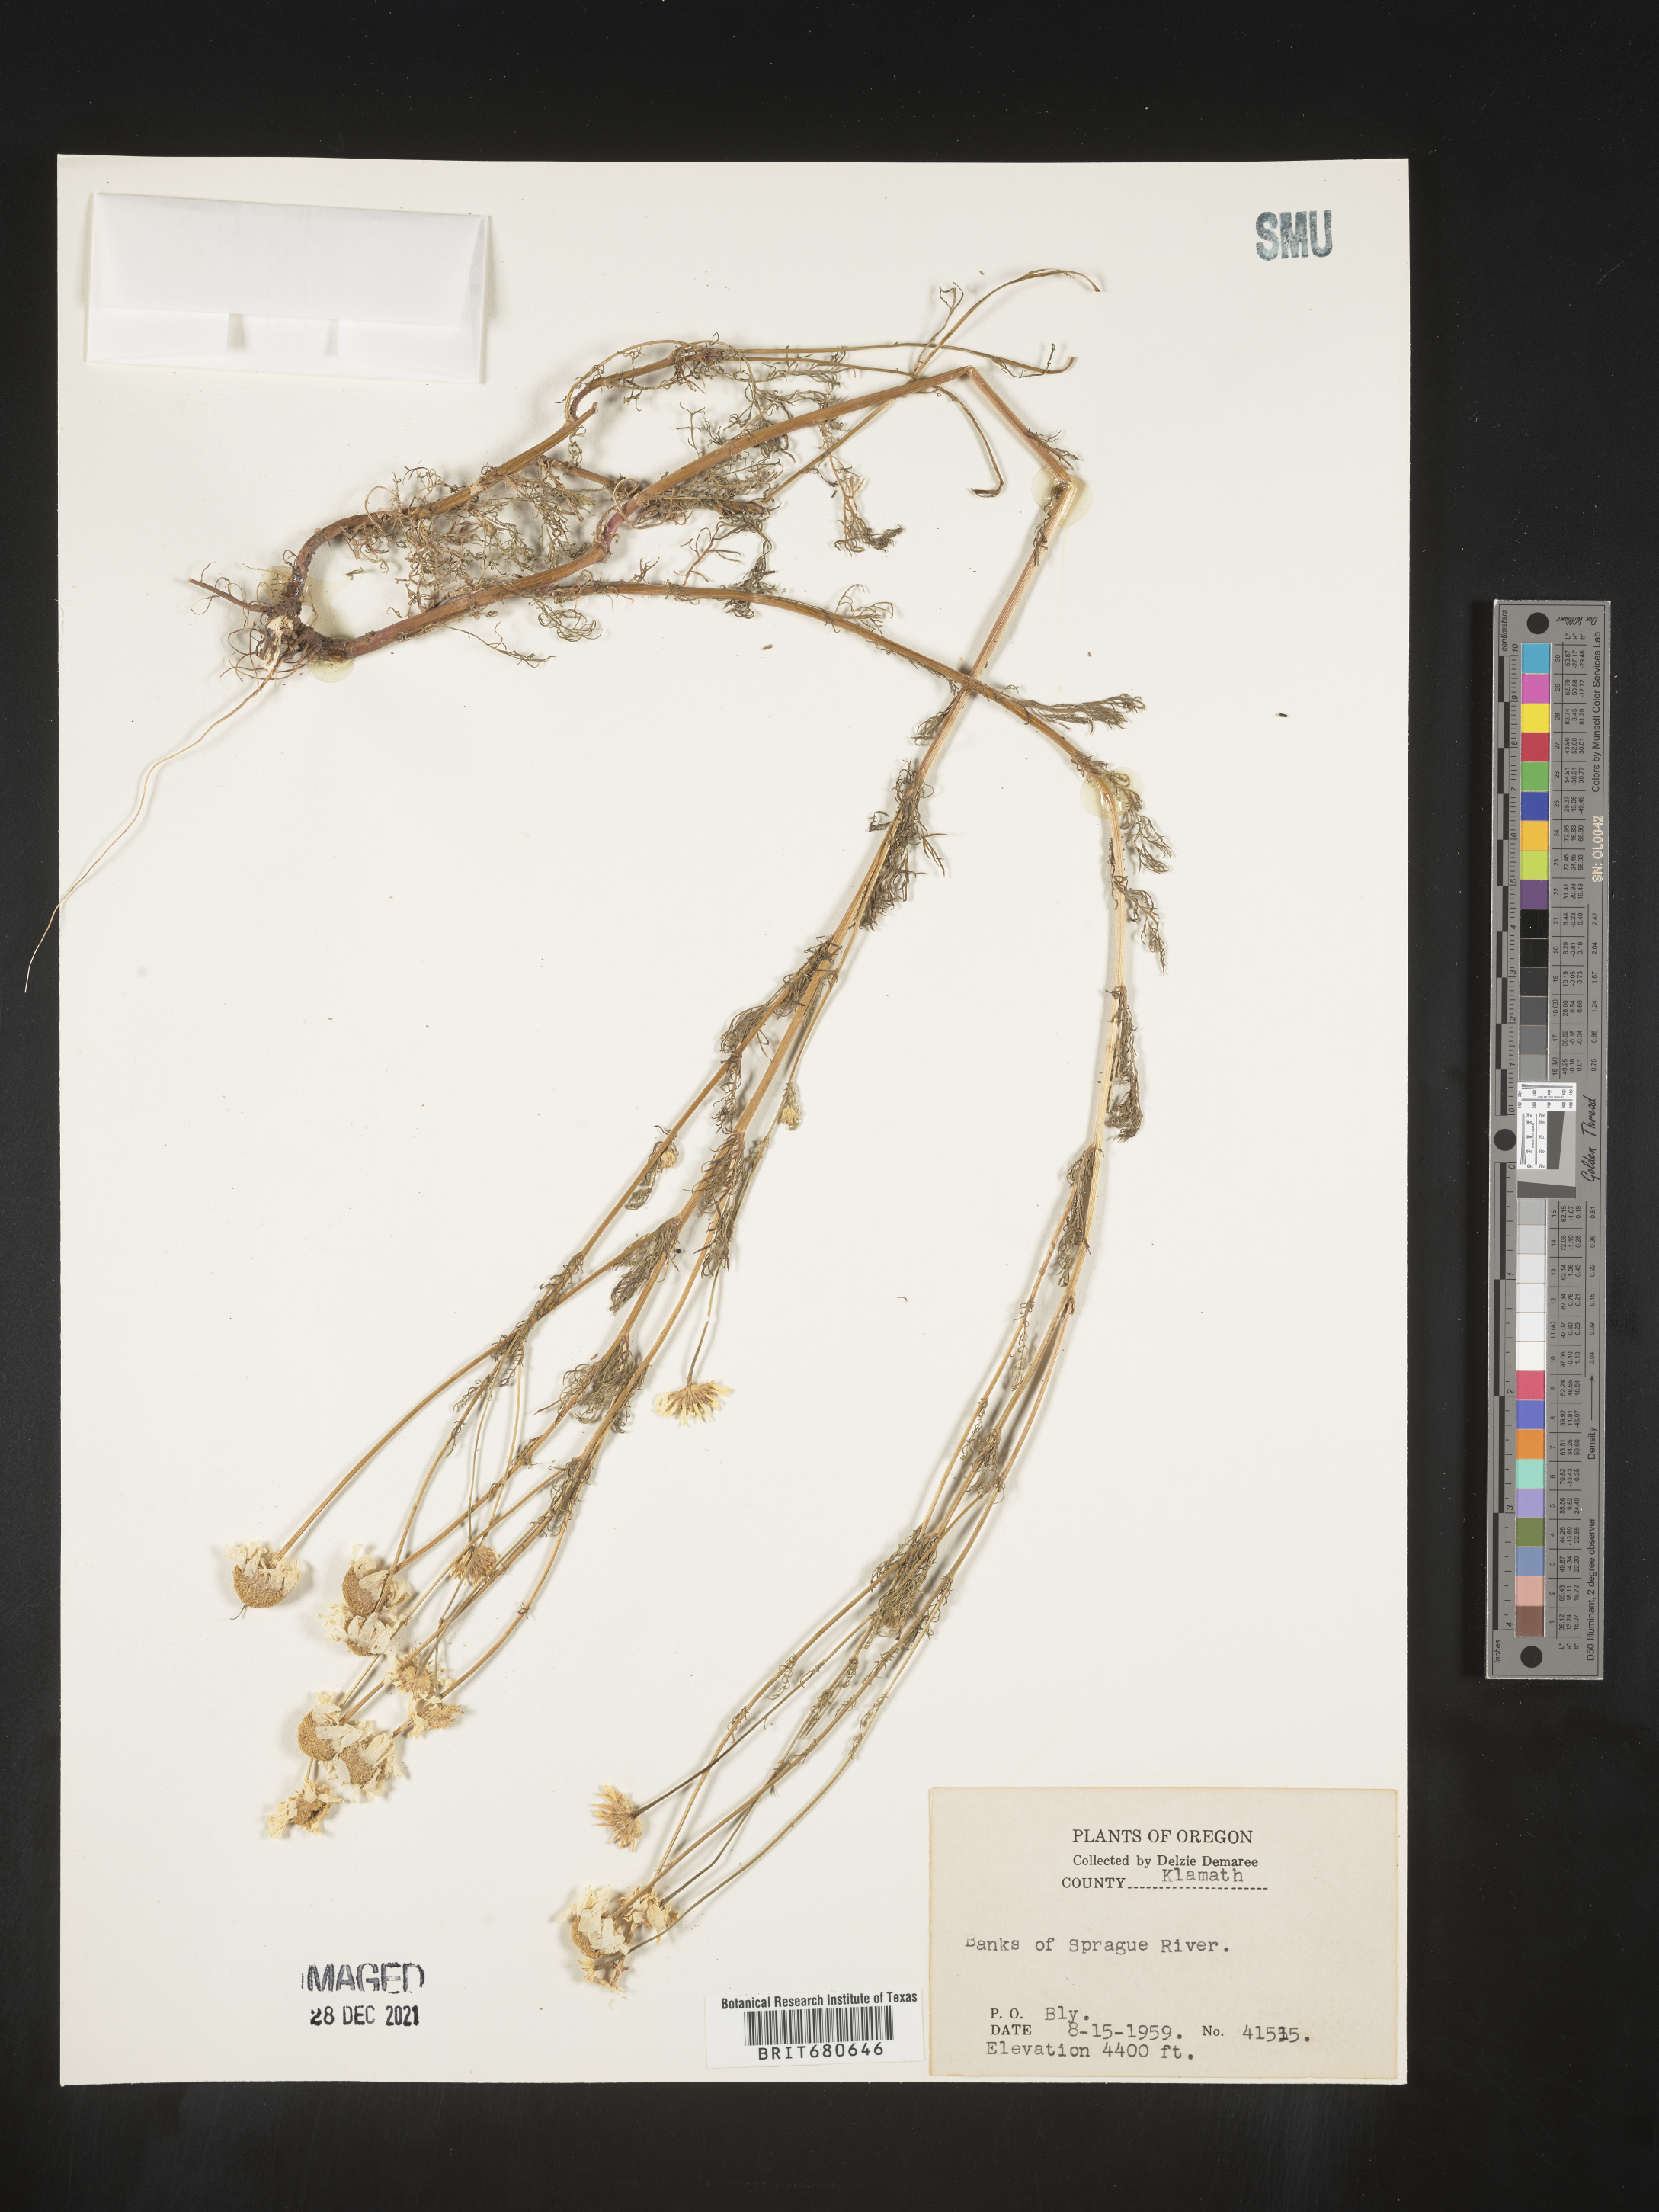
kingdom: Plantae
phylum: Tracheophyta
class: Magnoliopsida
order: Asterales
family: Asteraceae
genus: Anthemis
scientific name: Anthemis
